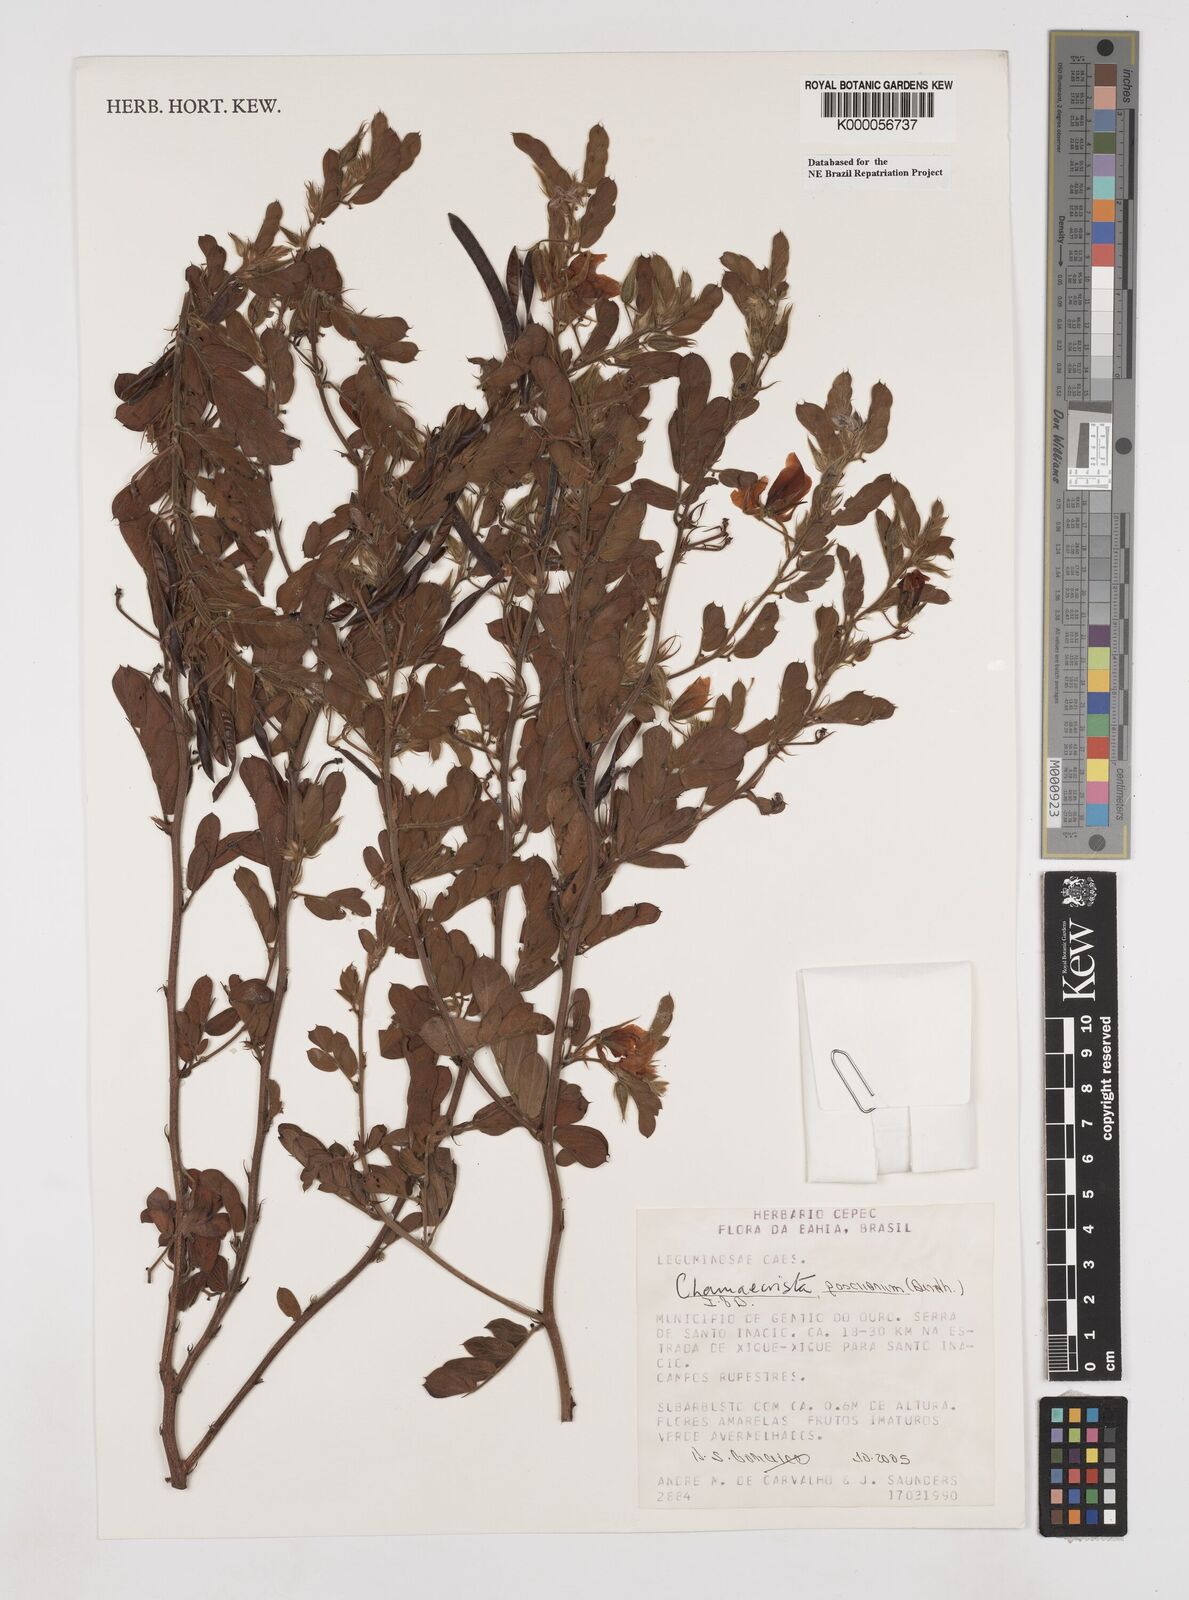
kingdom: Plantae
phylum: Tracheophyta
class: Magnoliopsida
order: Fabales
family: Fabaceae
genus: Chamaecrista
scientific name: Chamaecrista
